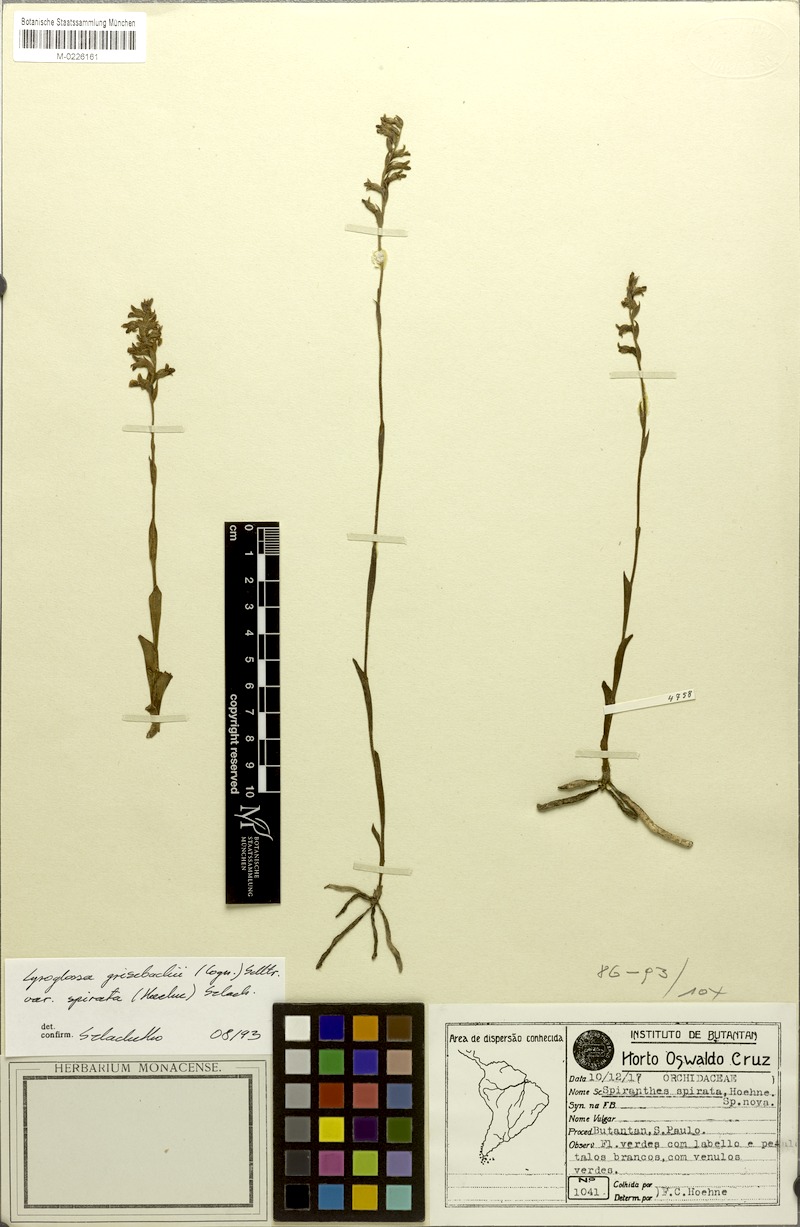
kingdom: Plantae
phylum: Tracheophyta
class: Liliopsida
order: Asparagales
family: Orchidaceae
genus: Lyroglossa
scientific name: Lyroglossa grisebachii
